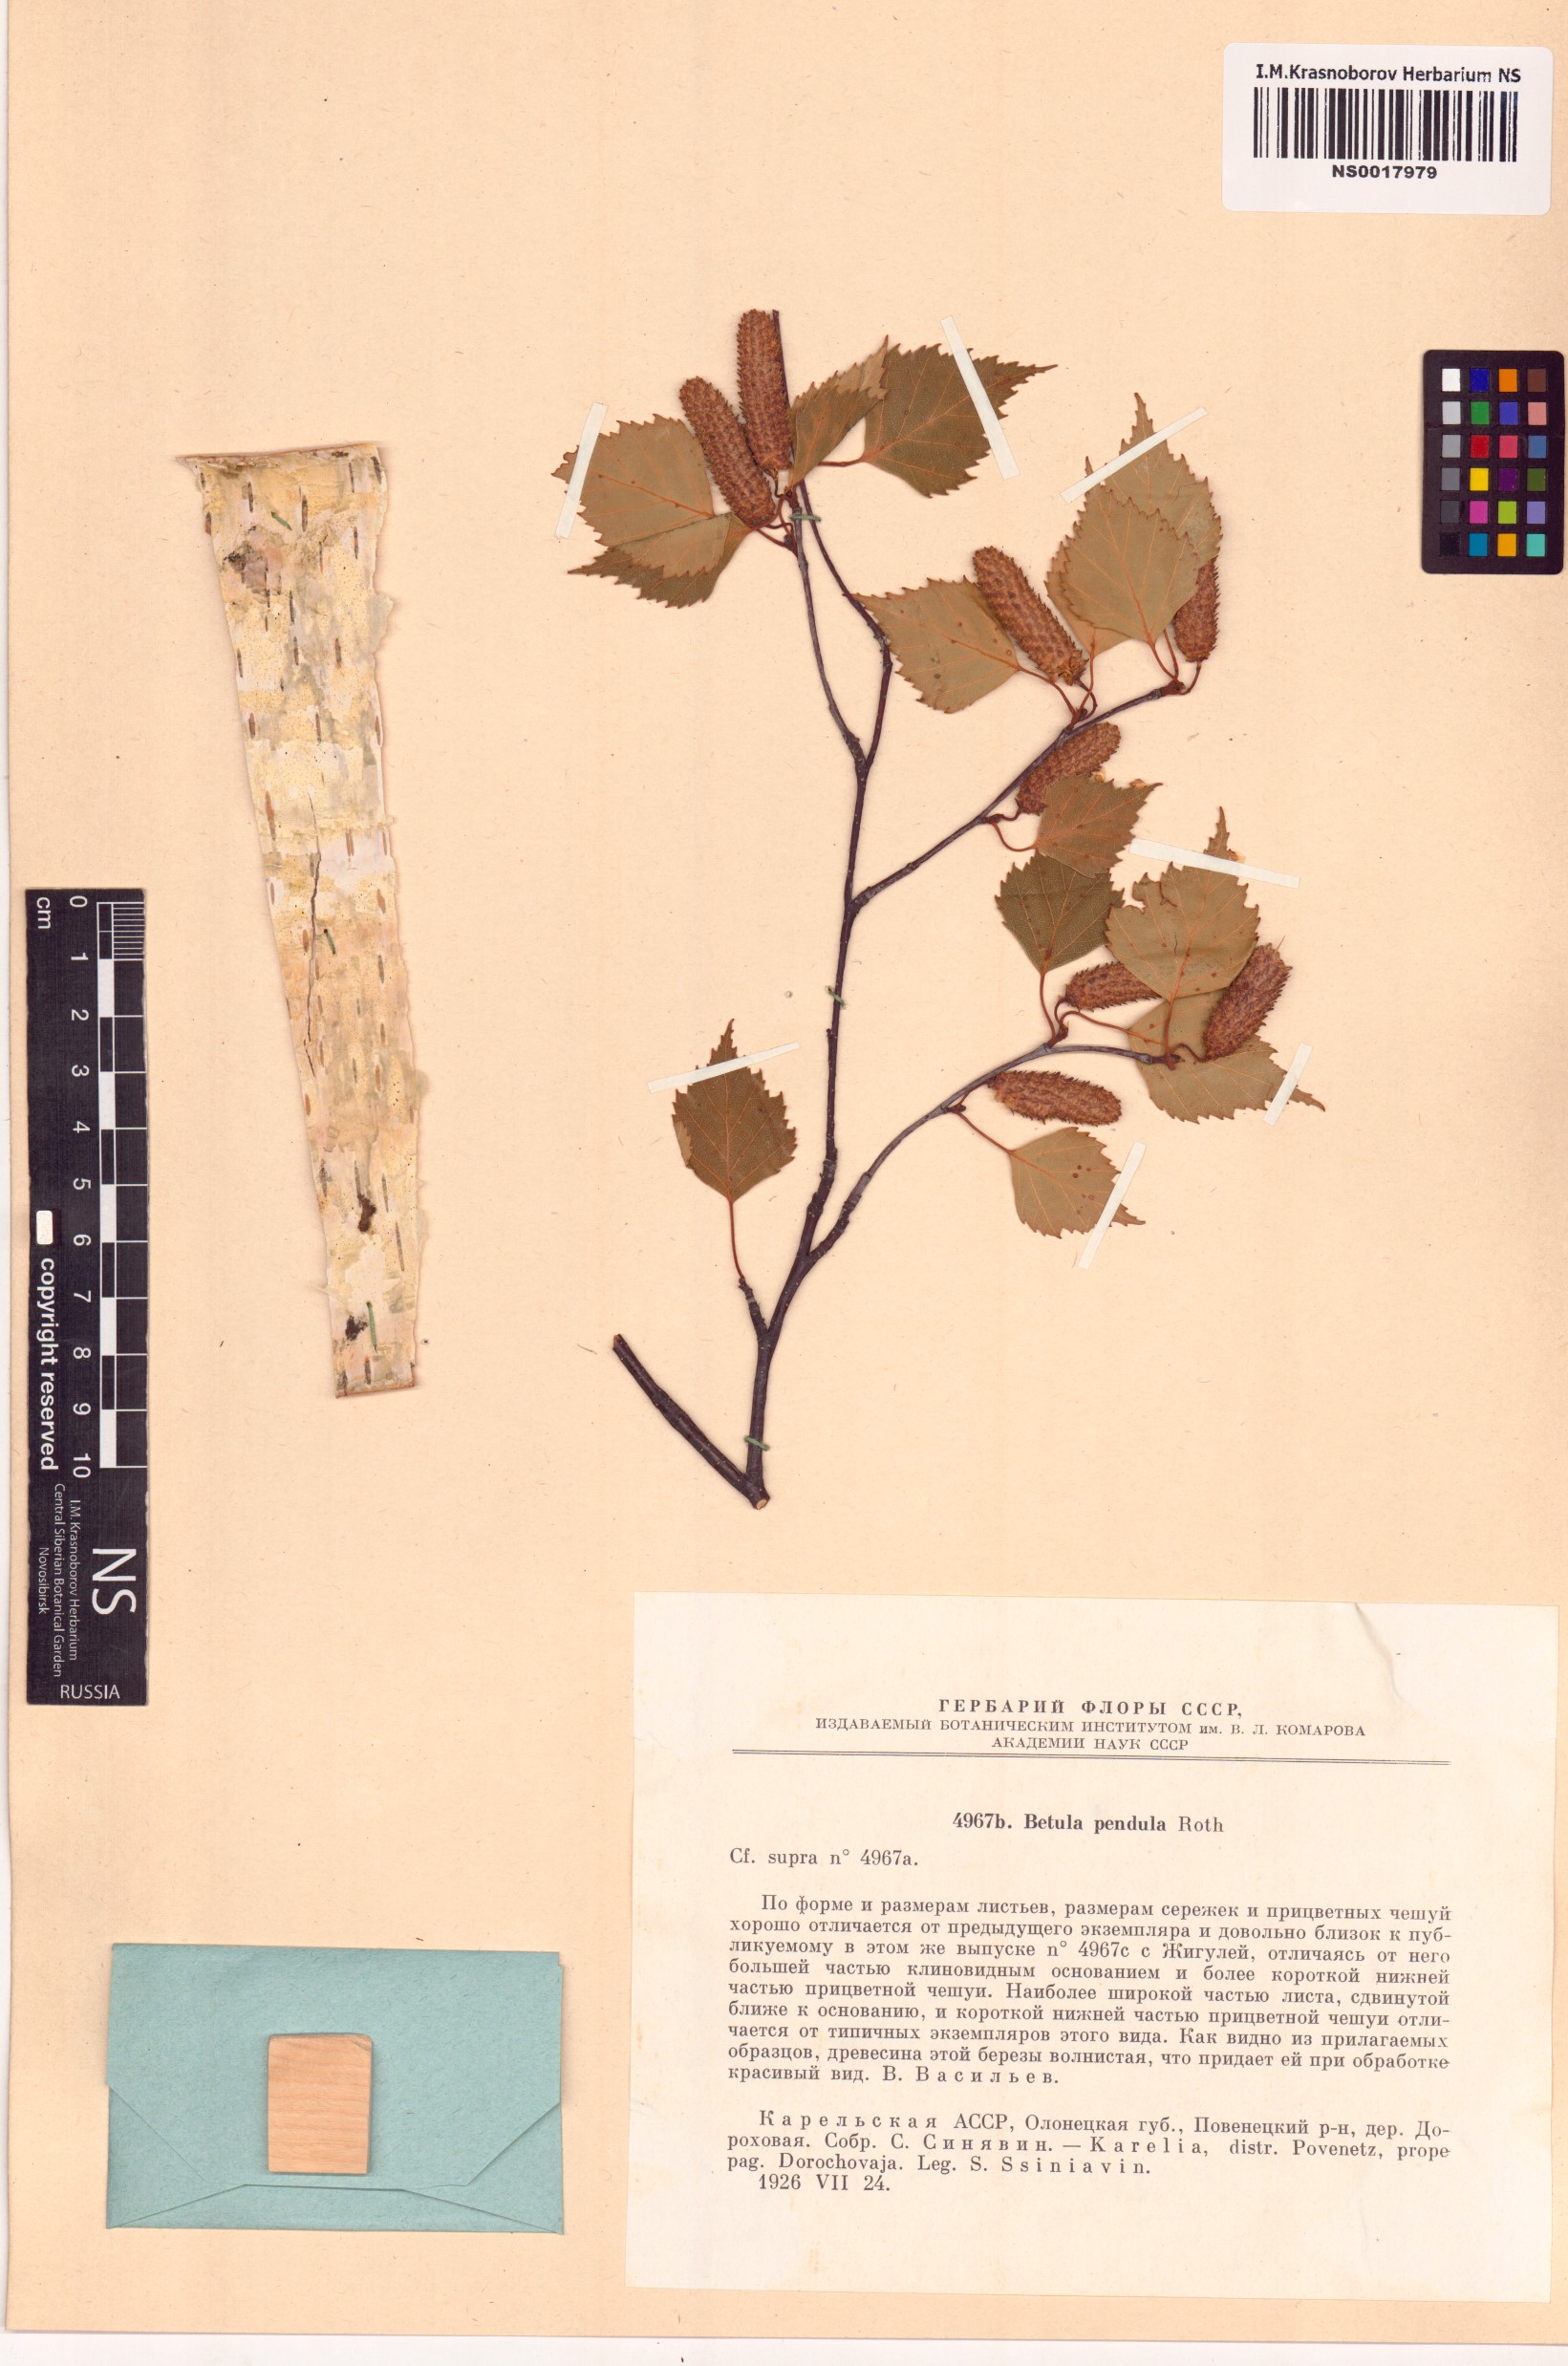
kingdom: Plantae
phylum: Tracheophyta
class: Magnoliopsida
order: Fagales
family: Betulaceae
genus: Betula
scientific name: Betula pendula
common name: Silver birch
